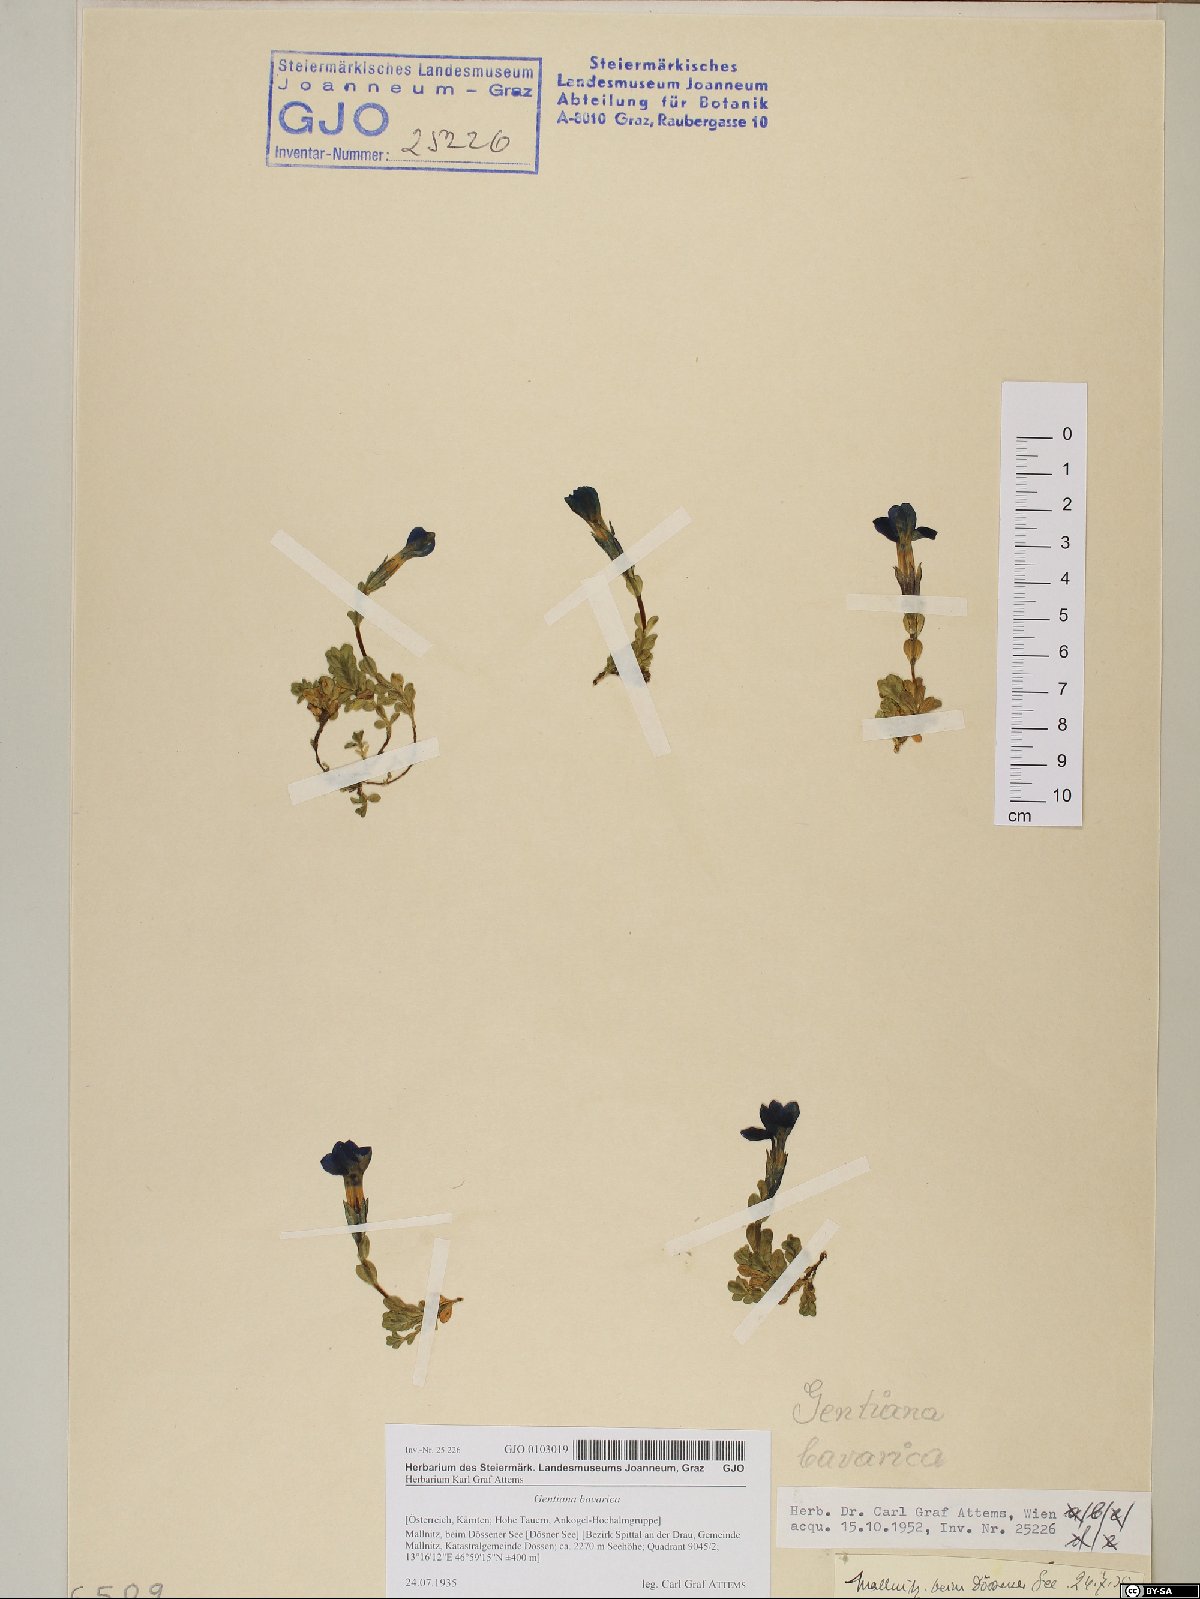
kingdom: Plantae
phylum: Tracheophyta
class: Magnoliopsida
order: Gentianales
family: Gentianaceae
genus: Gentiana
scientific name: Gentiana bavarica
